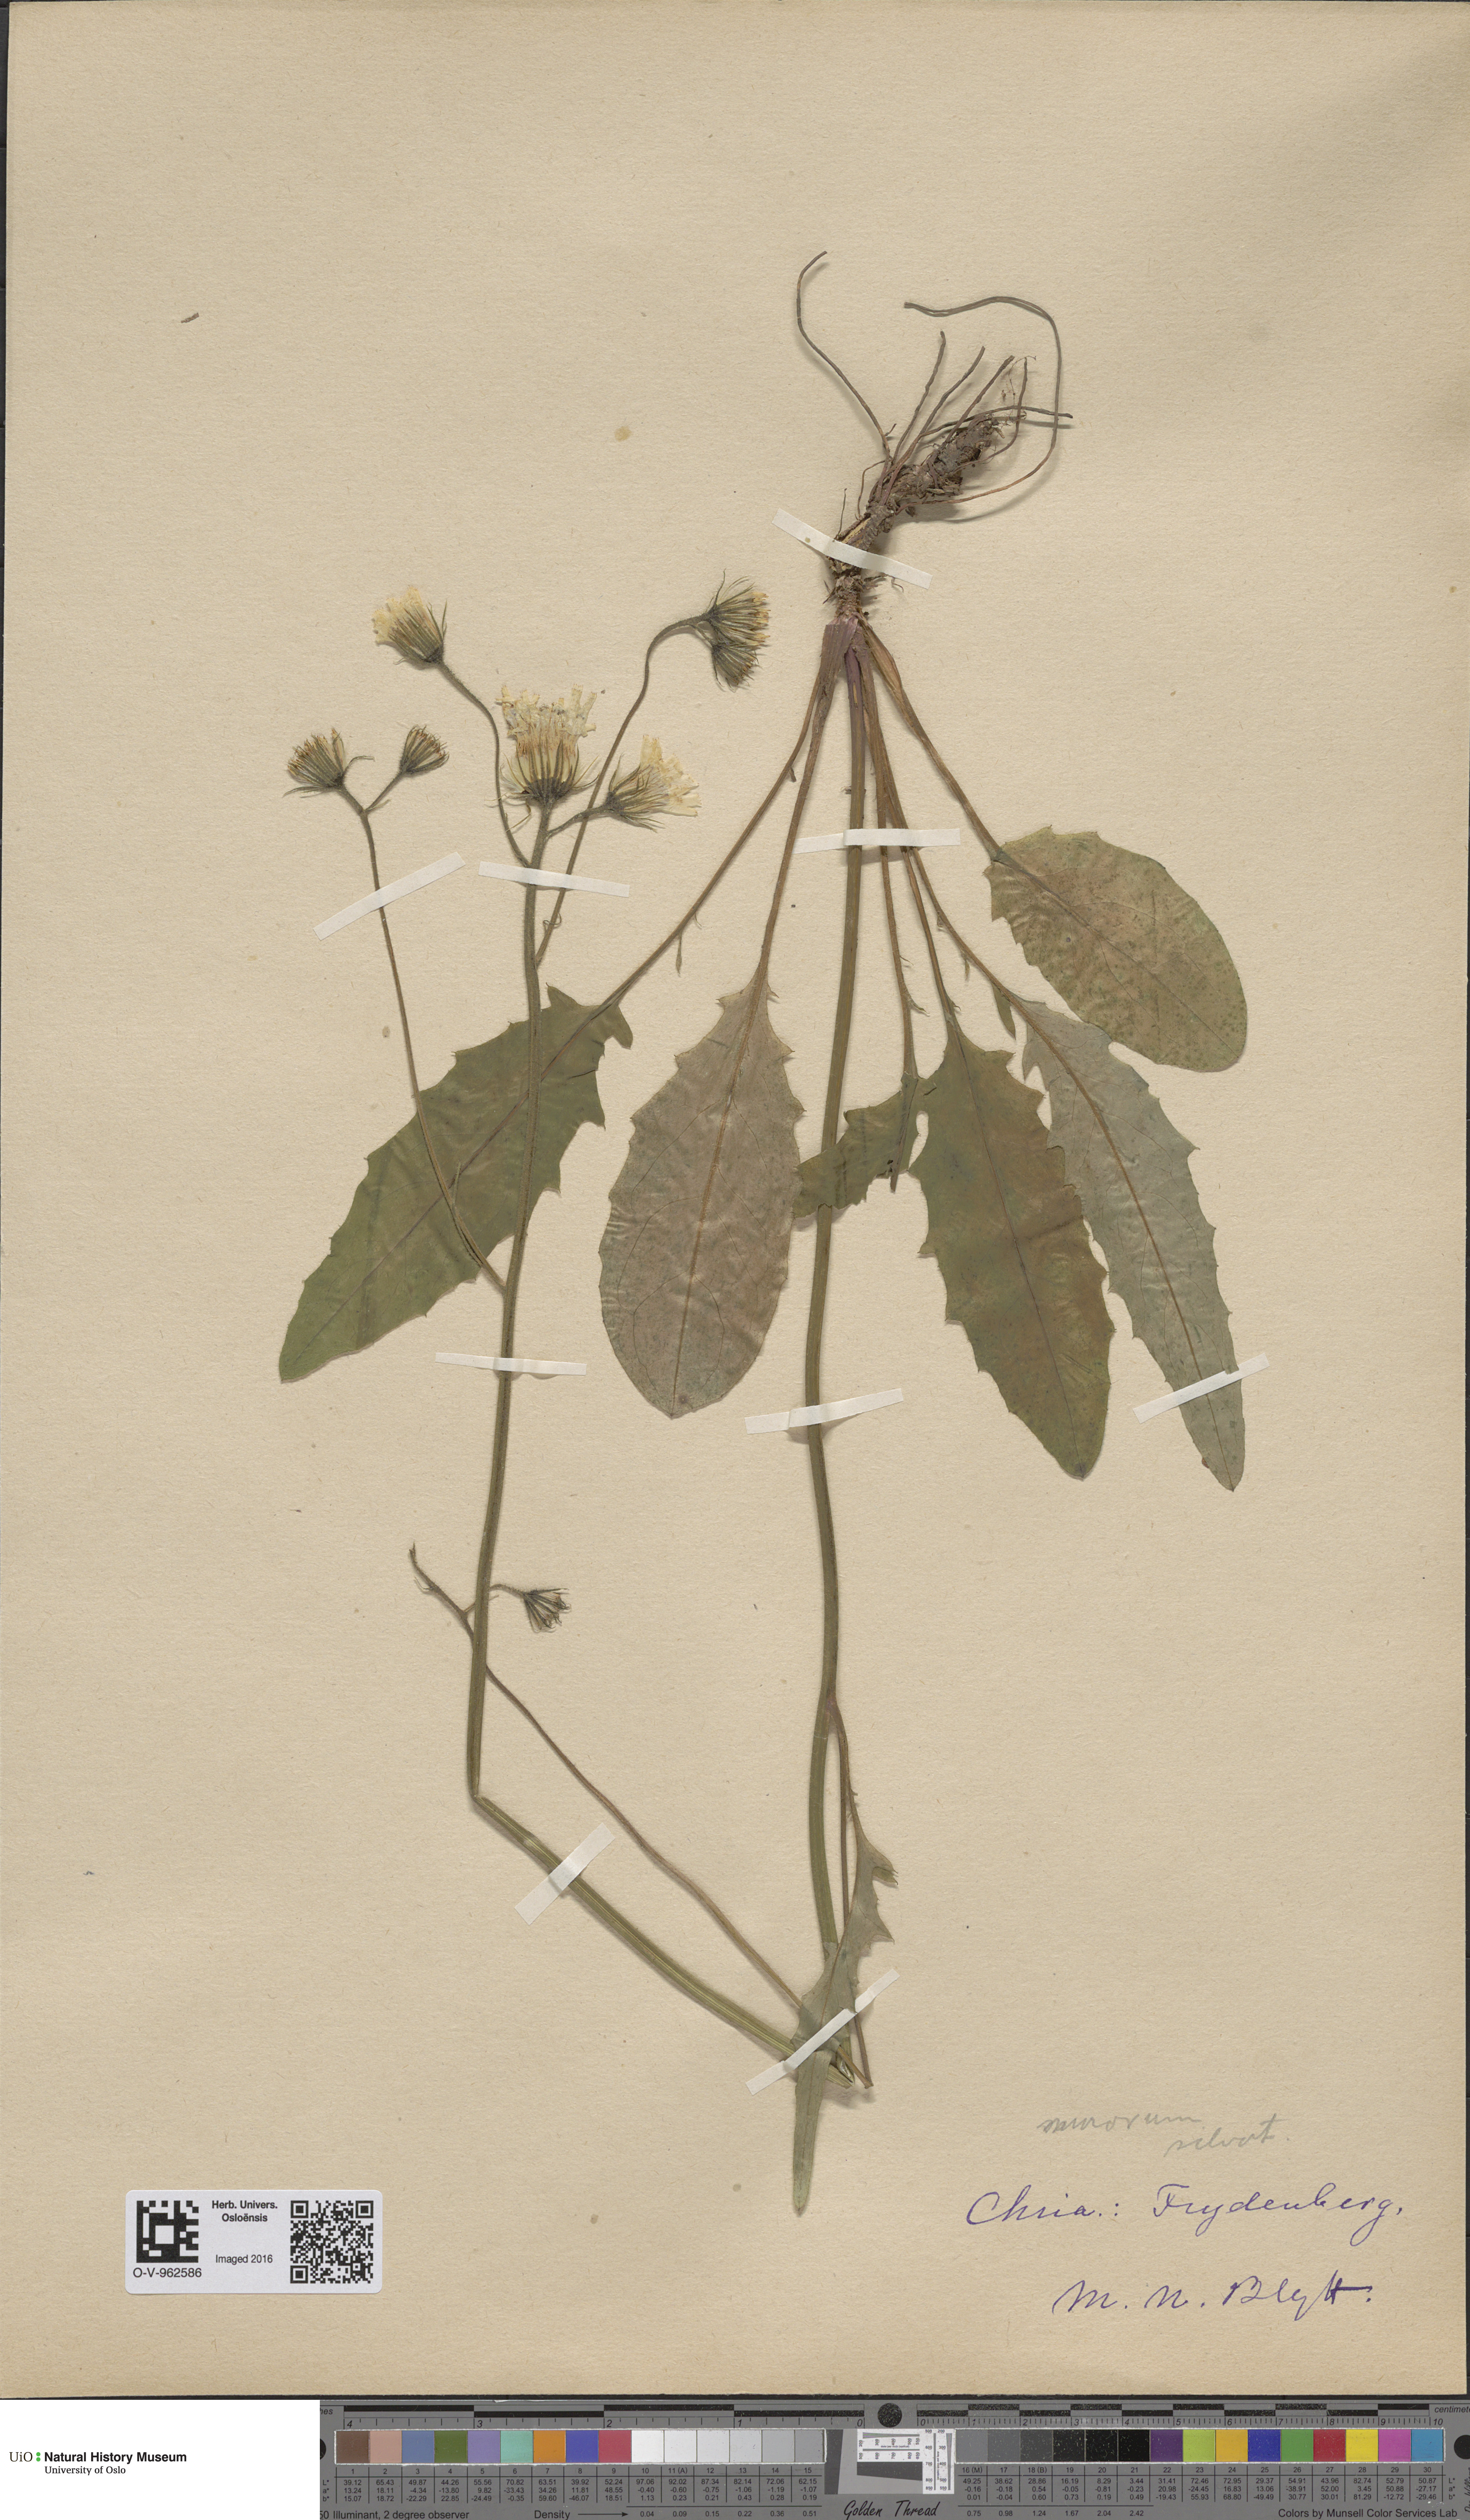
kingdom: Plantae
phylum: Tracheophyta
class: Magnoliopsida
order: Asterales
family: Asteraceae
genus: Hieracium
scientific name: Hieracium
